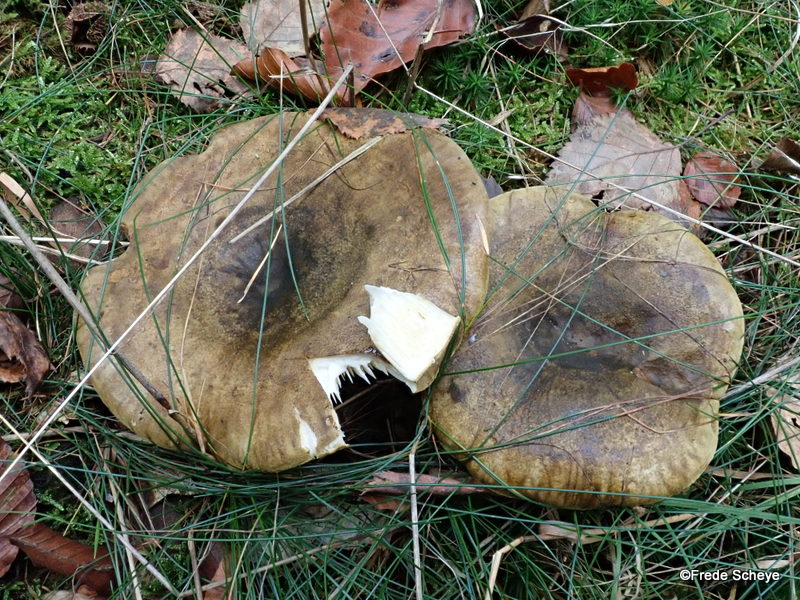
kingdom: Fungi
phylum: Basidiomycota
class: Agaricomycetes
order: Russulales
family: Russulaceae
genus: Lactarius
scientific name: Lactarius necator
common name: manddraber-mælkehat
